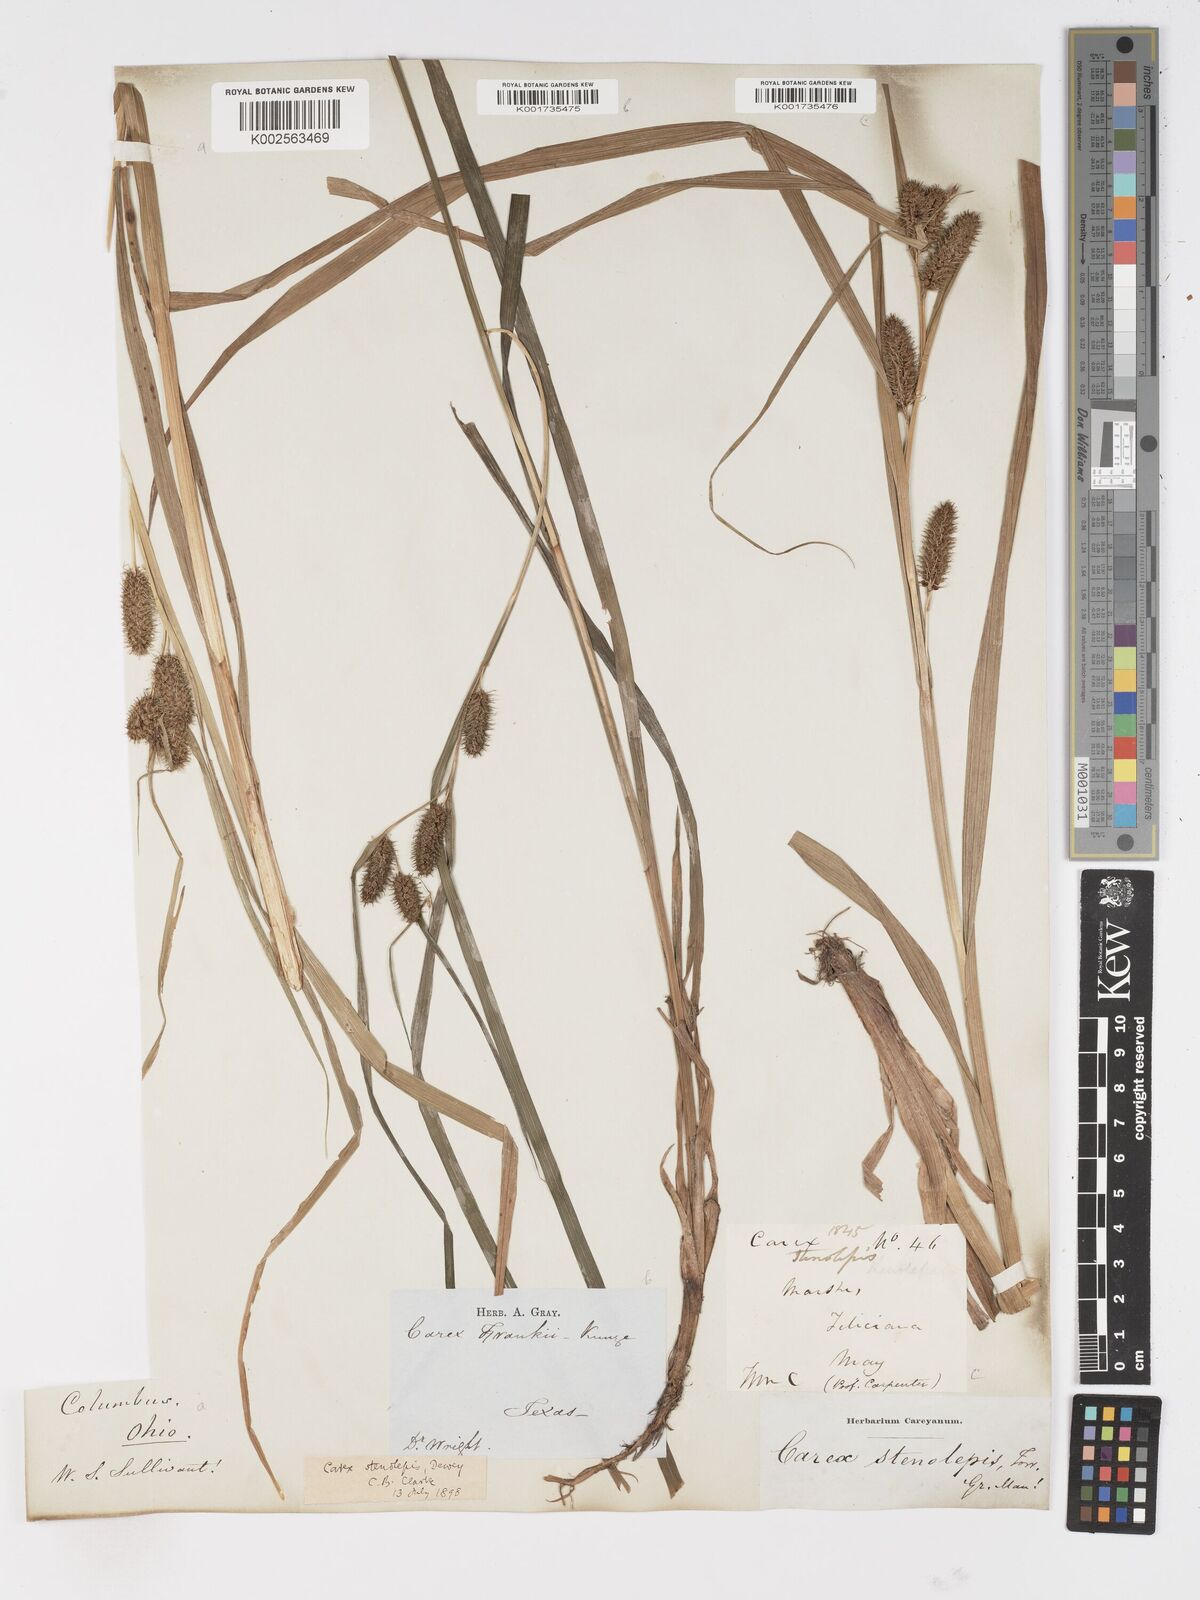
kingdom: Plantae
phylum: Tracheophyta
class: Liliopsida
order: Poales
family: Cyperaceae
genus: Carex
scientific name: Carex frankii
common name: Frank's sedge
